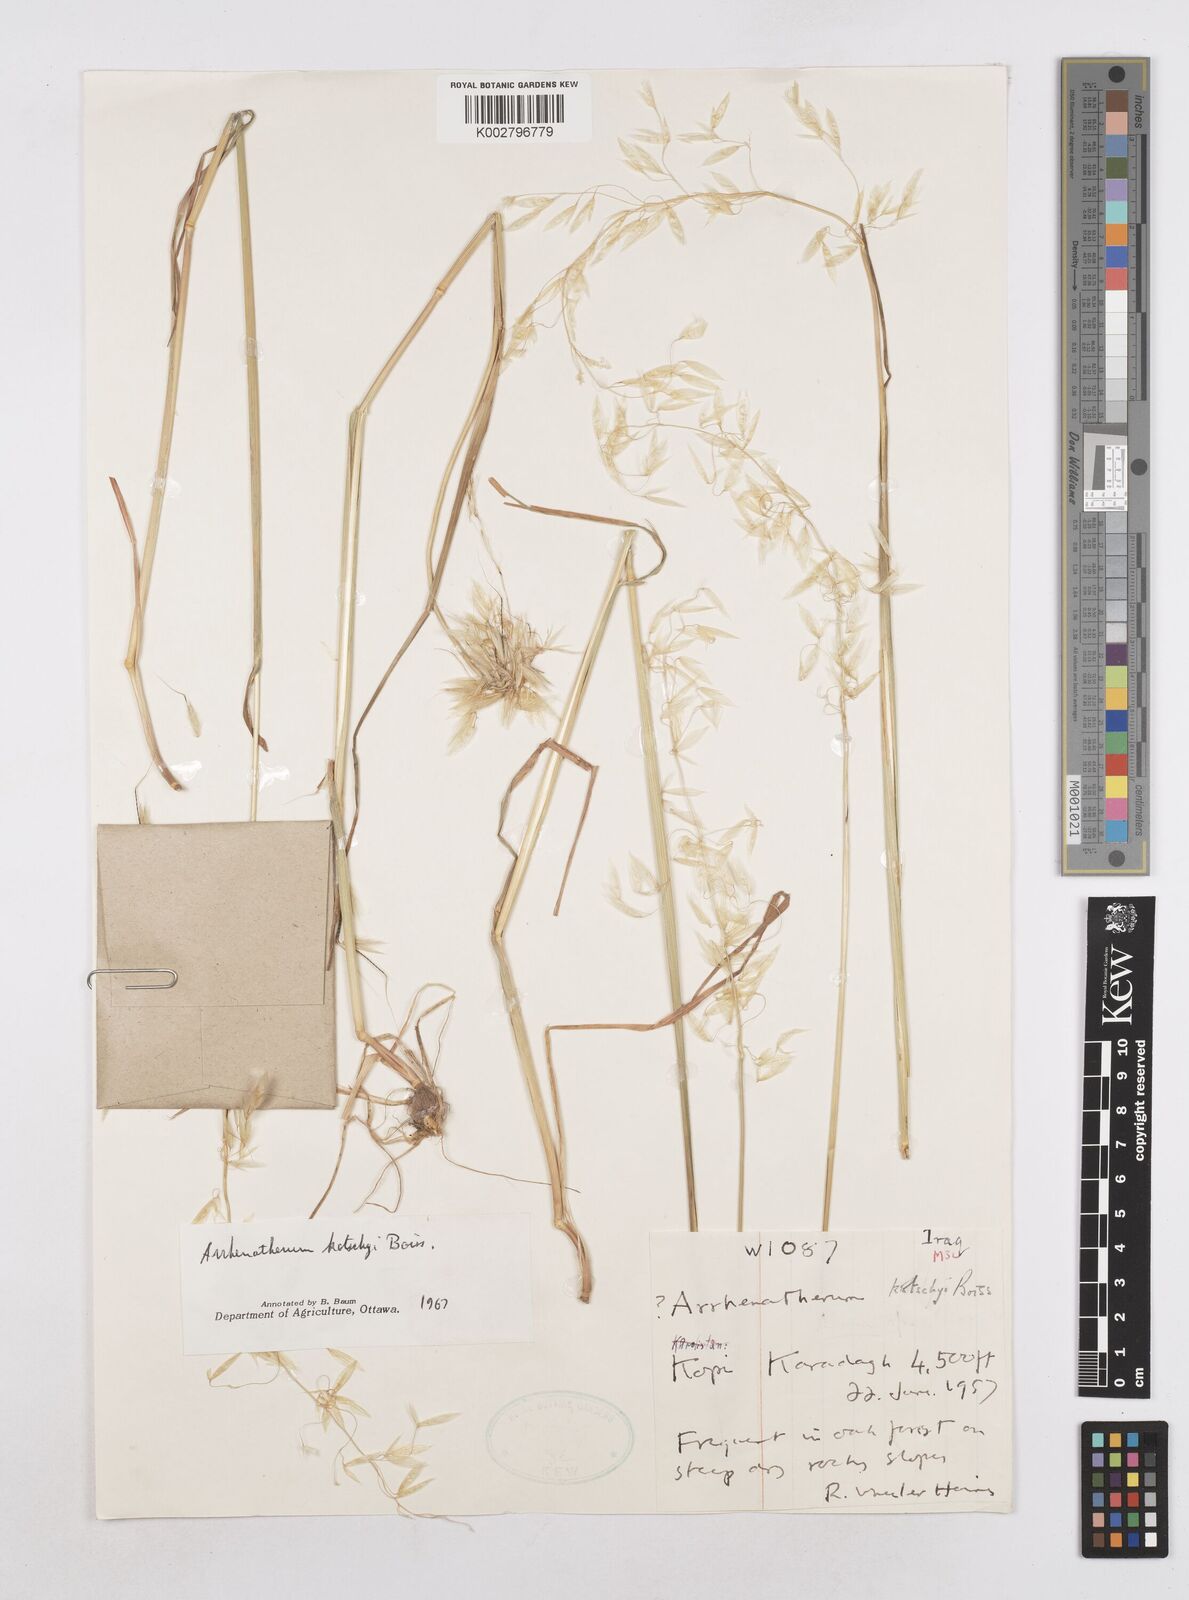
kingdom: Plantae
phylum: Tracheophyta
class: Liliopsida
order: Poales
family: Poaceae
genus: Arrhenatherum
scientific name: Arrhenatherum kotschyi
